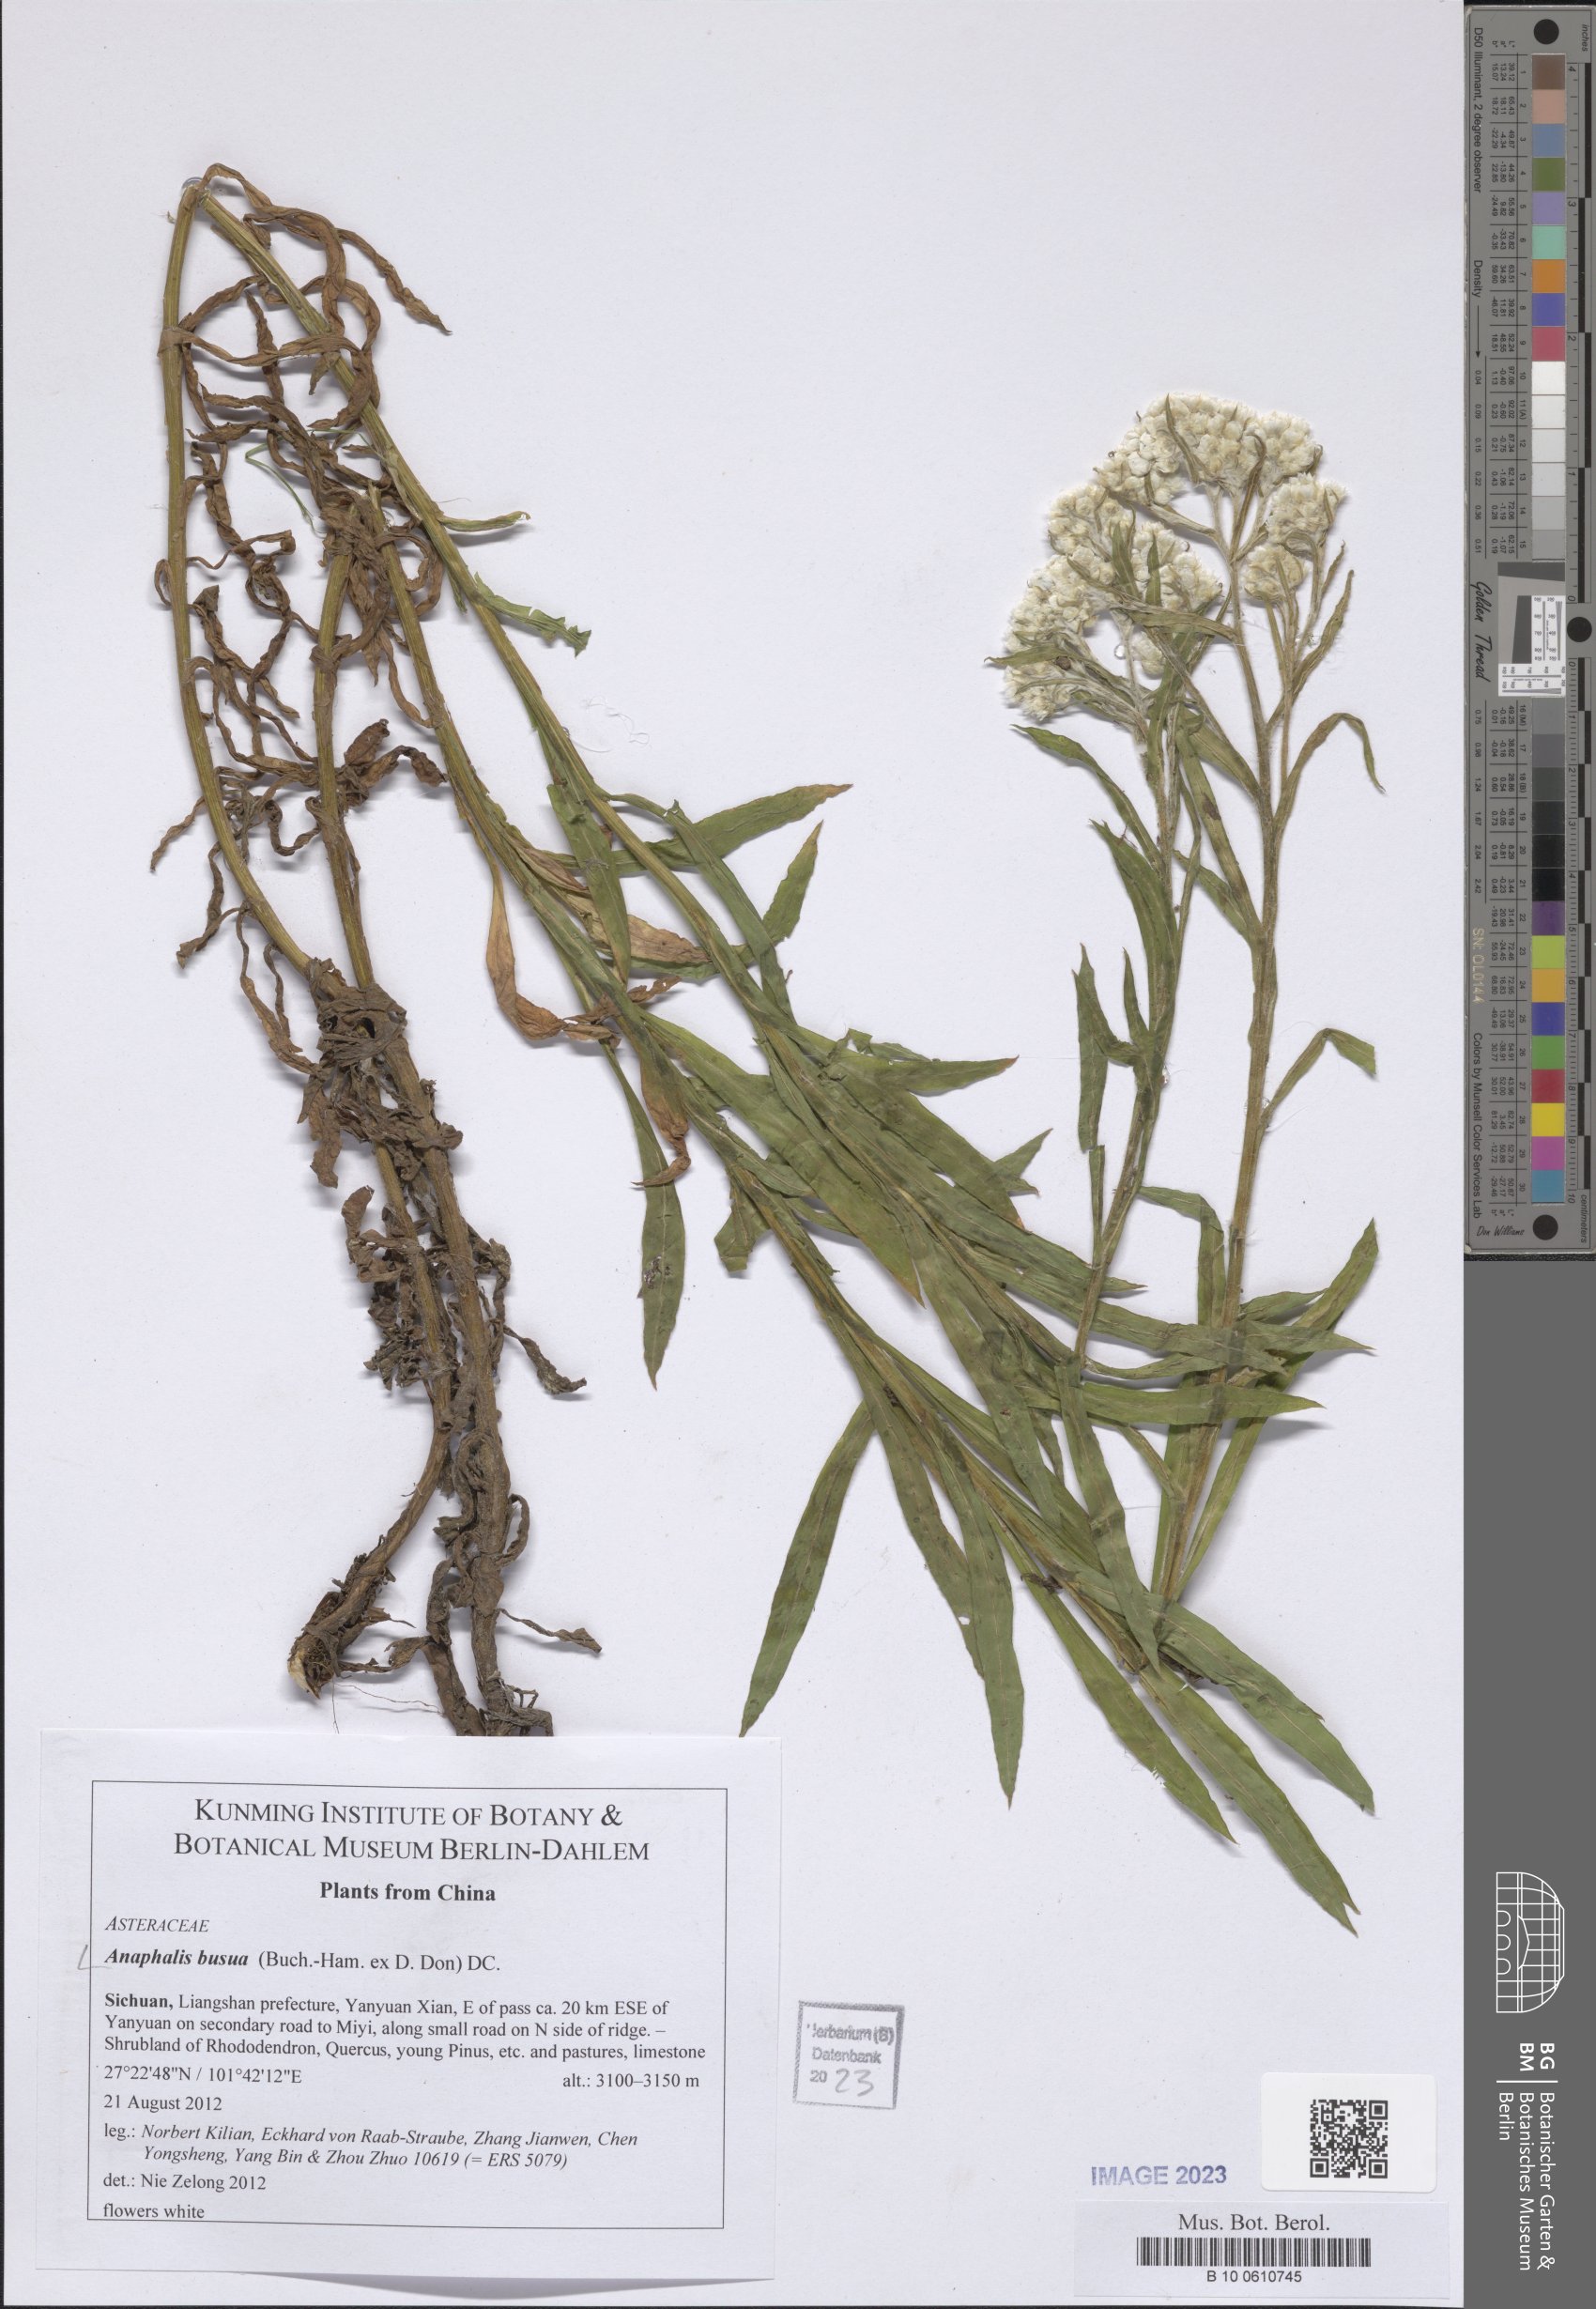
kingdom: Plantae
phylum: Tracheophyta
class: Magnoliopsida
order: Asterales
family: Asteraceae
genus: Anaphalis
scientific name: Anaphalis busua
